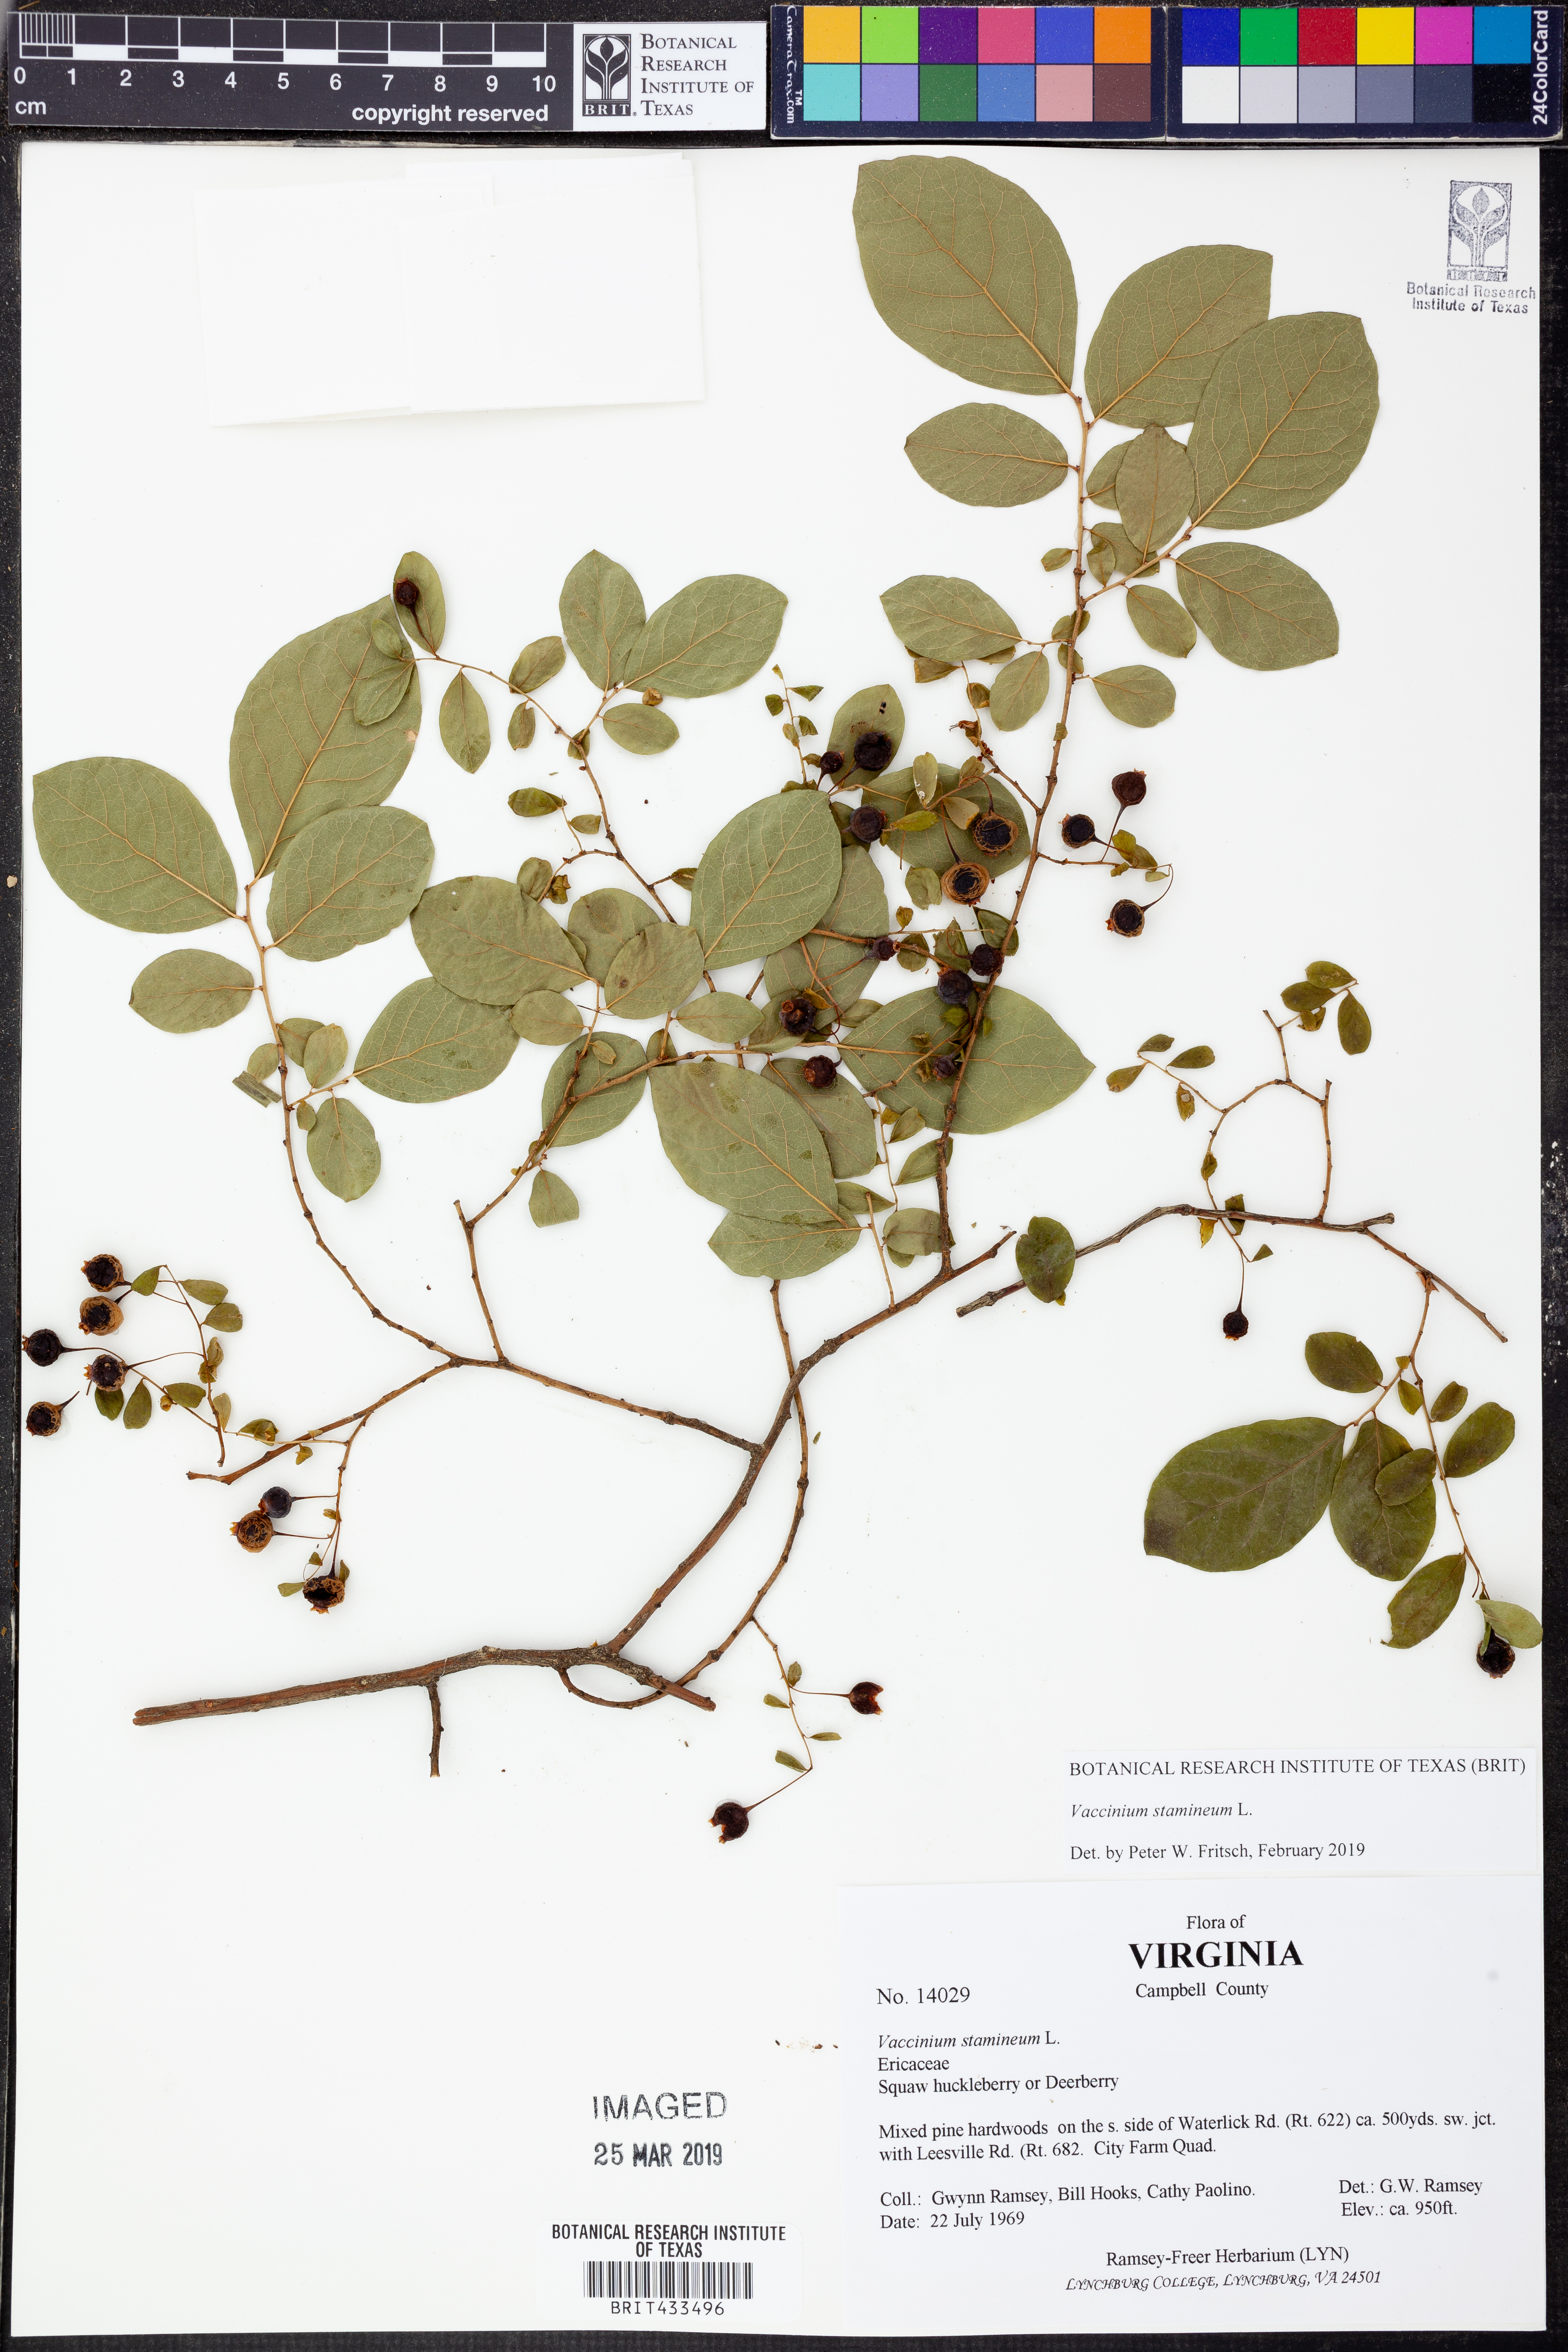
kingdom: Plantae
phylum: Tracheophyta
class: Magnoliopsida
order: Ericales
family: Ericaceae
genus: Vaccinium
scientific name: Vaccinium stamineum
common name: Deerberry
